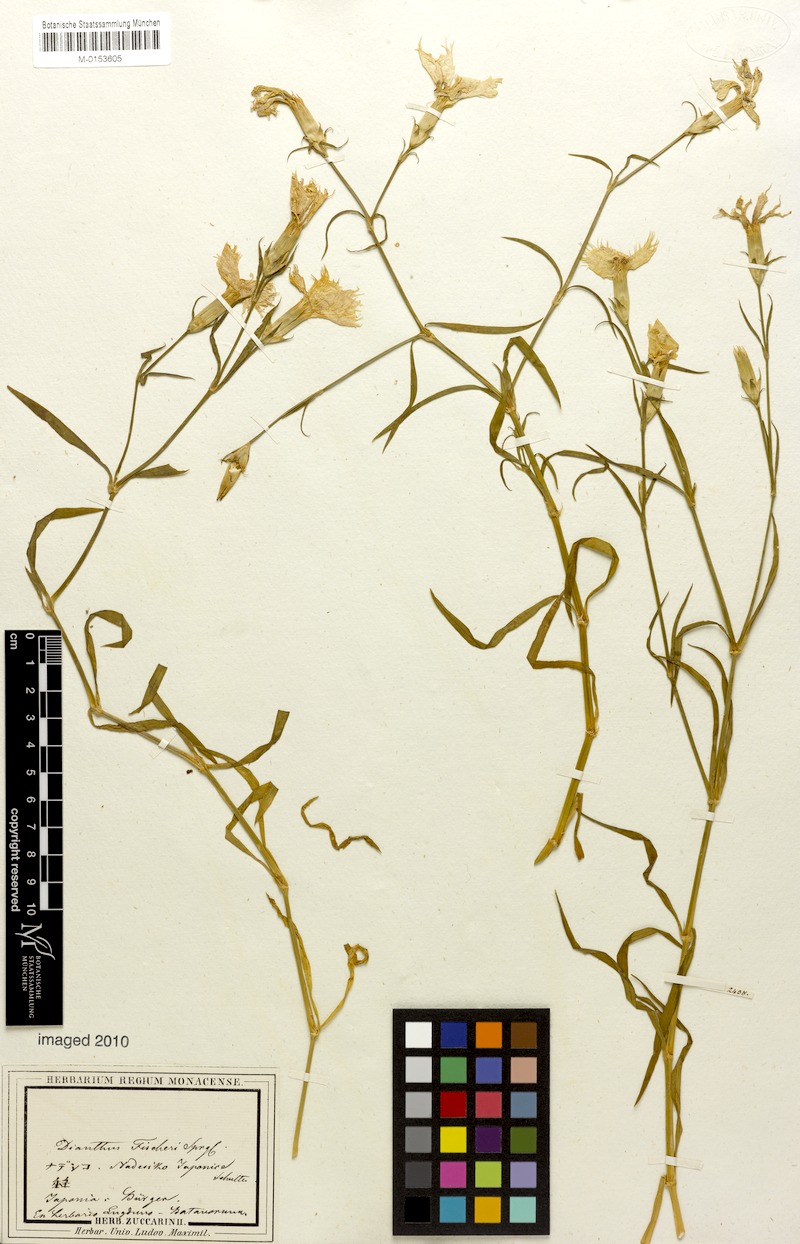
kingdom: Plantae
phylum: Tracheophyta
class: Magnoliopsida
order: Caryophyllales
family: Caryophyllaceae
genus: Dianthus
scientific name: Dianthus chinensis
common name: Rainbow pink
